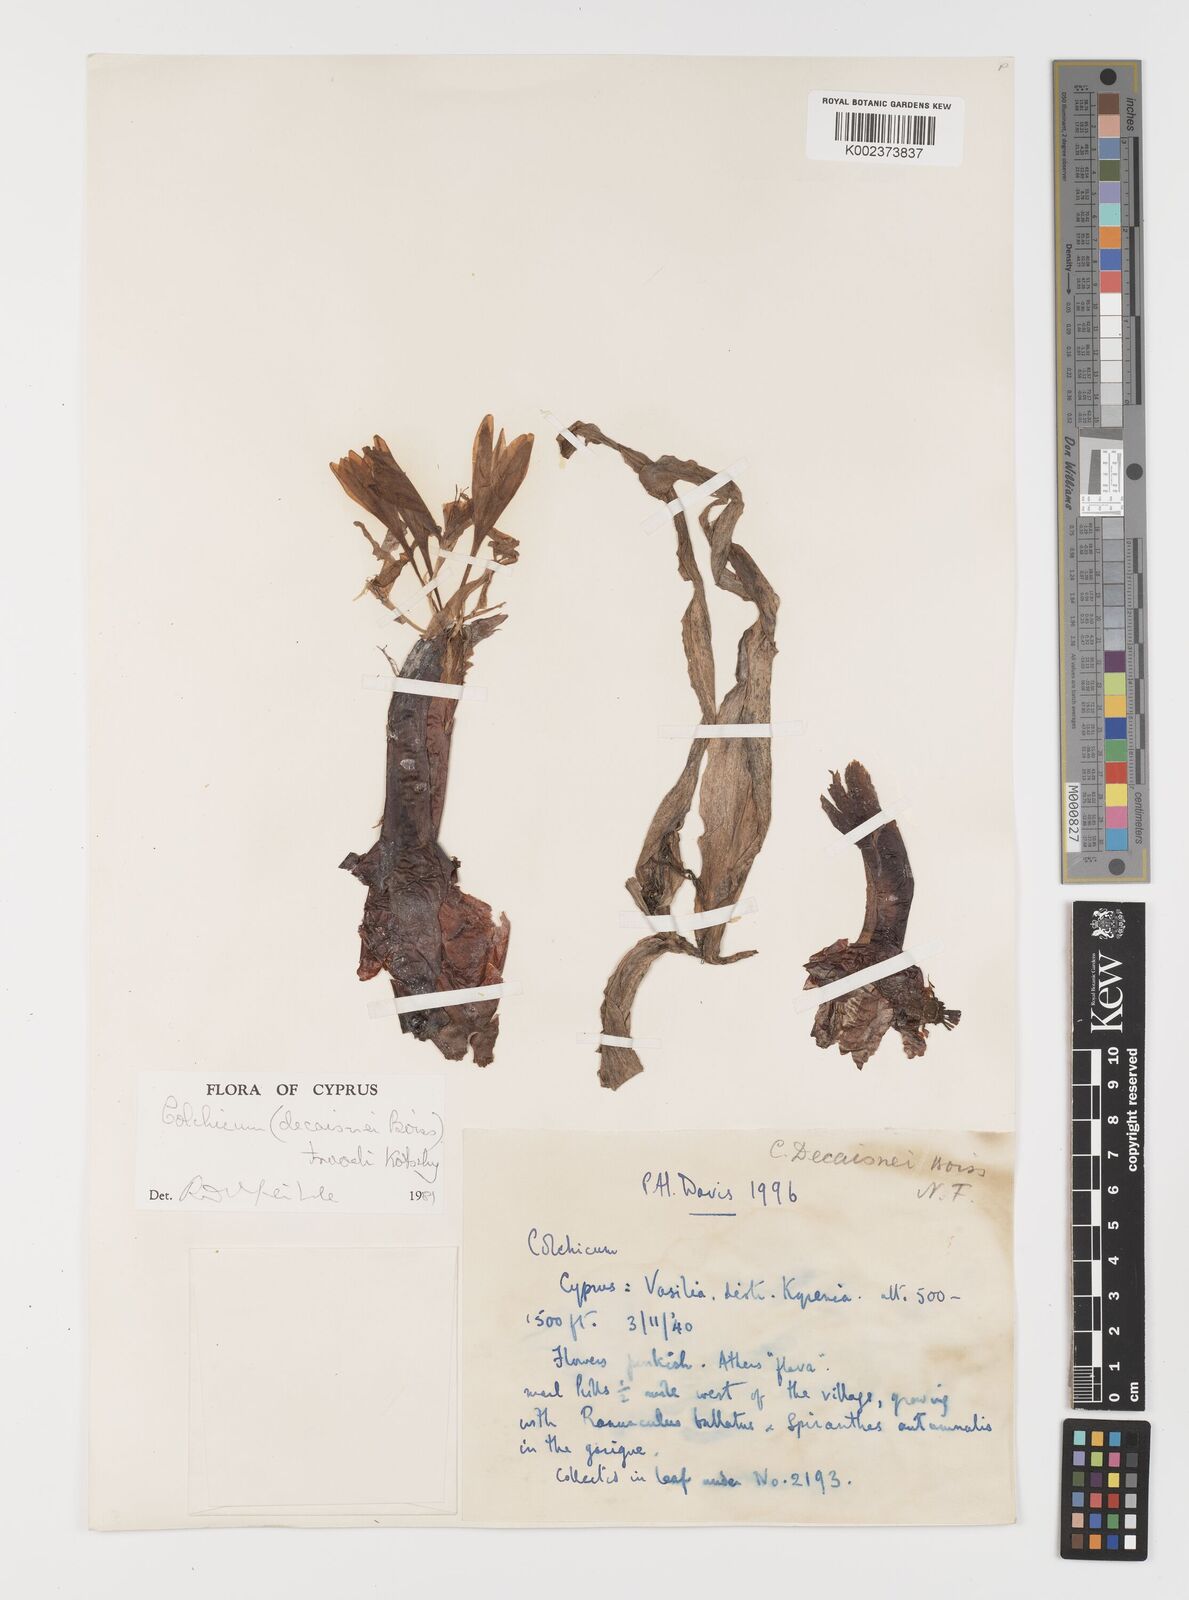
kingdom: Plantae
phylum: Tracheophyta
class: Liliopsida
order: Liliales
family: Colchicaceae
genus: Colchicum
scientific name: Colchicum troodi
